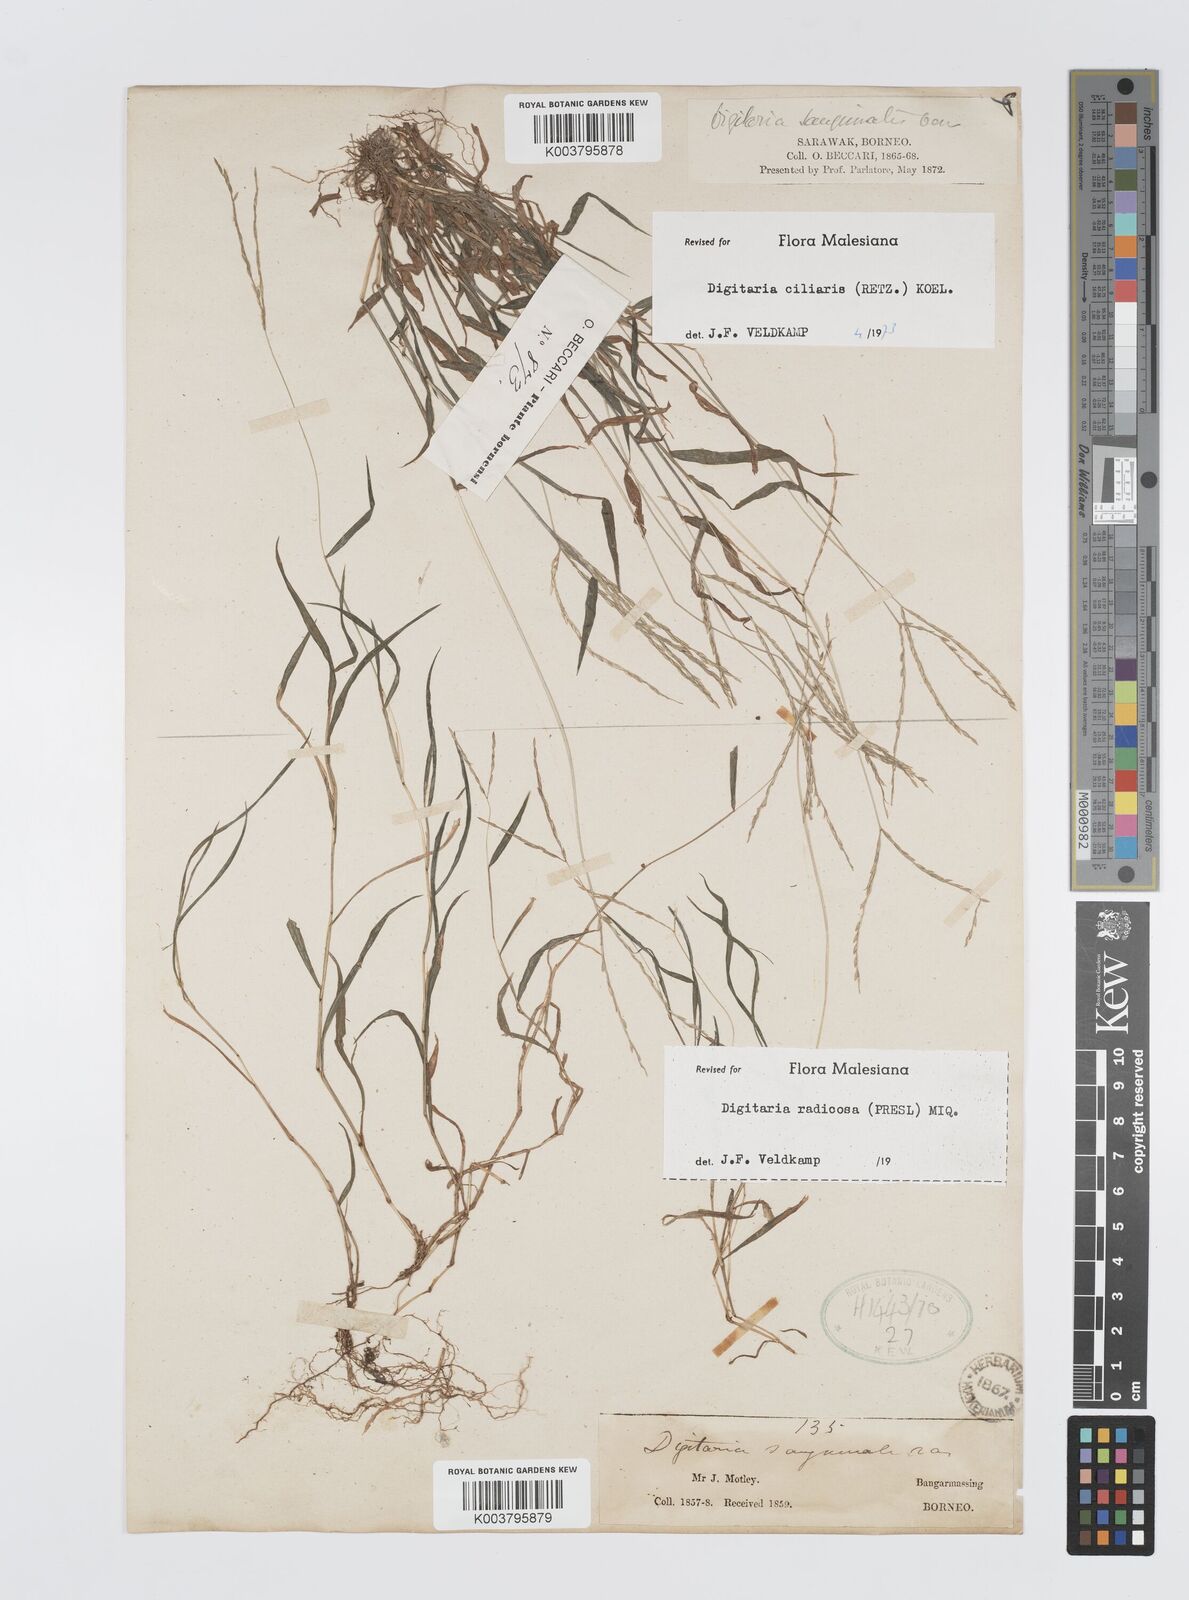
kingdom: Plantae
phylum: Tracheophyta
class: Liliopsida
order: Poales
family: Poaceae
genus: Digitaria
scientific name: Digitaria ciliaris
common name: Tropical finger-grass
